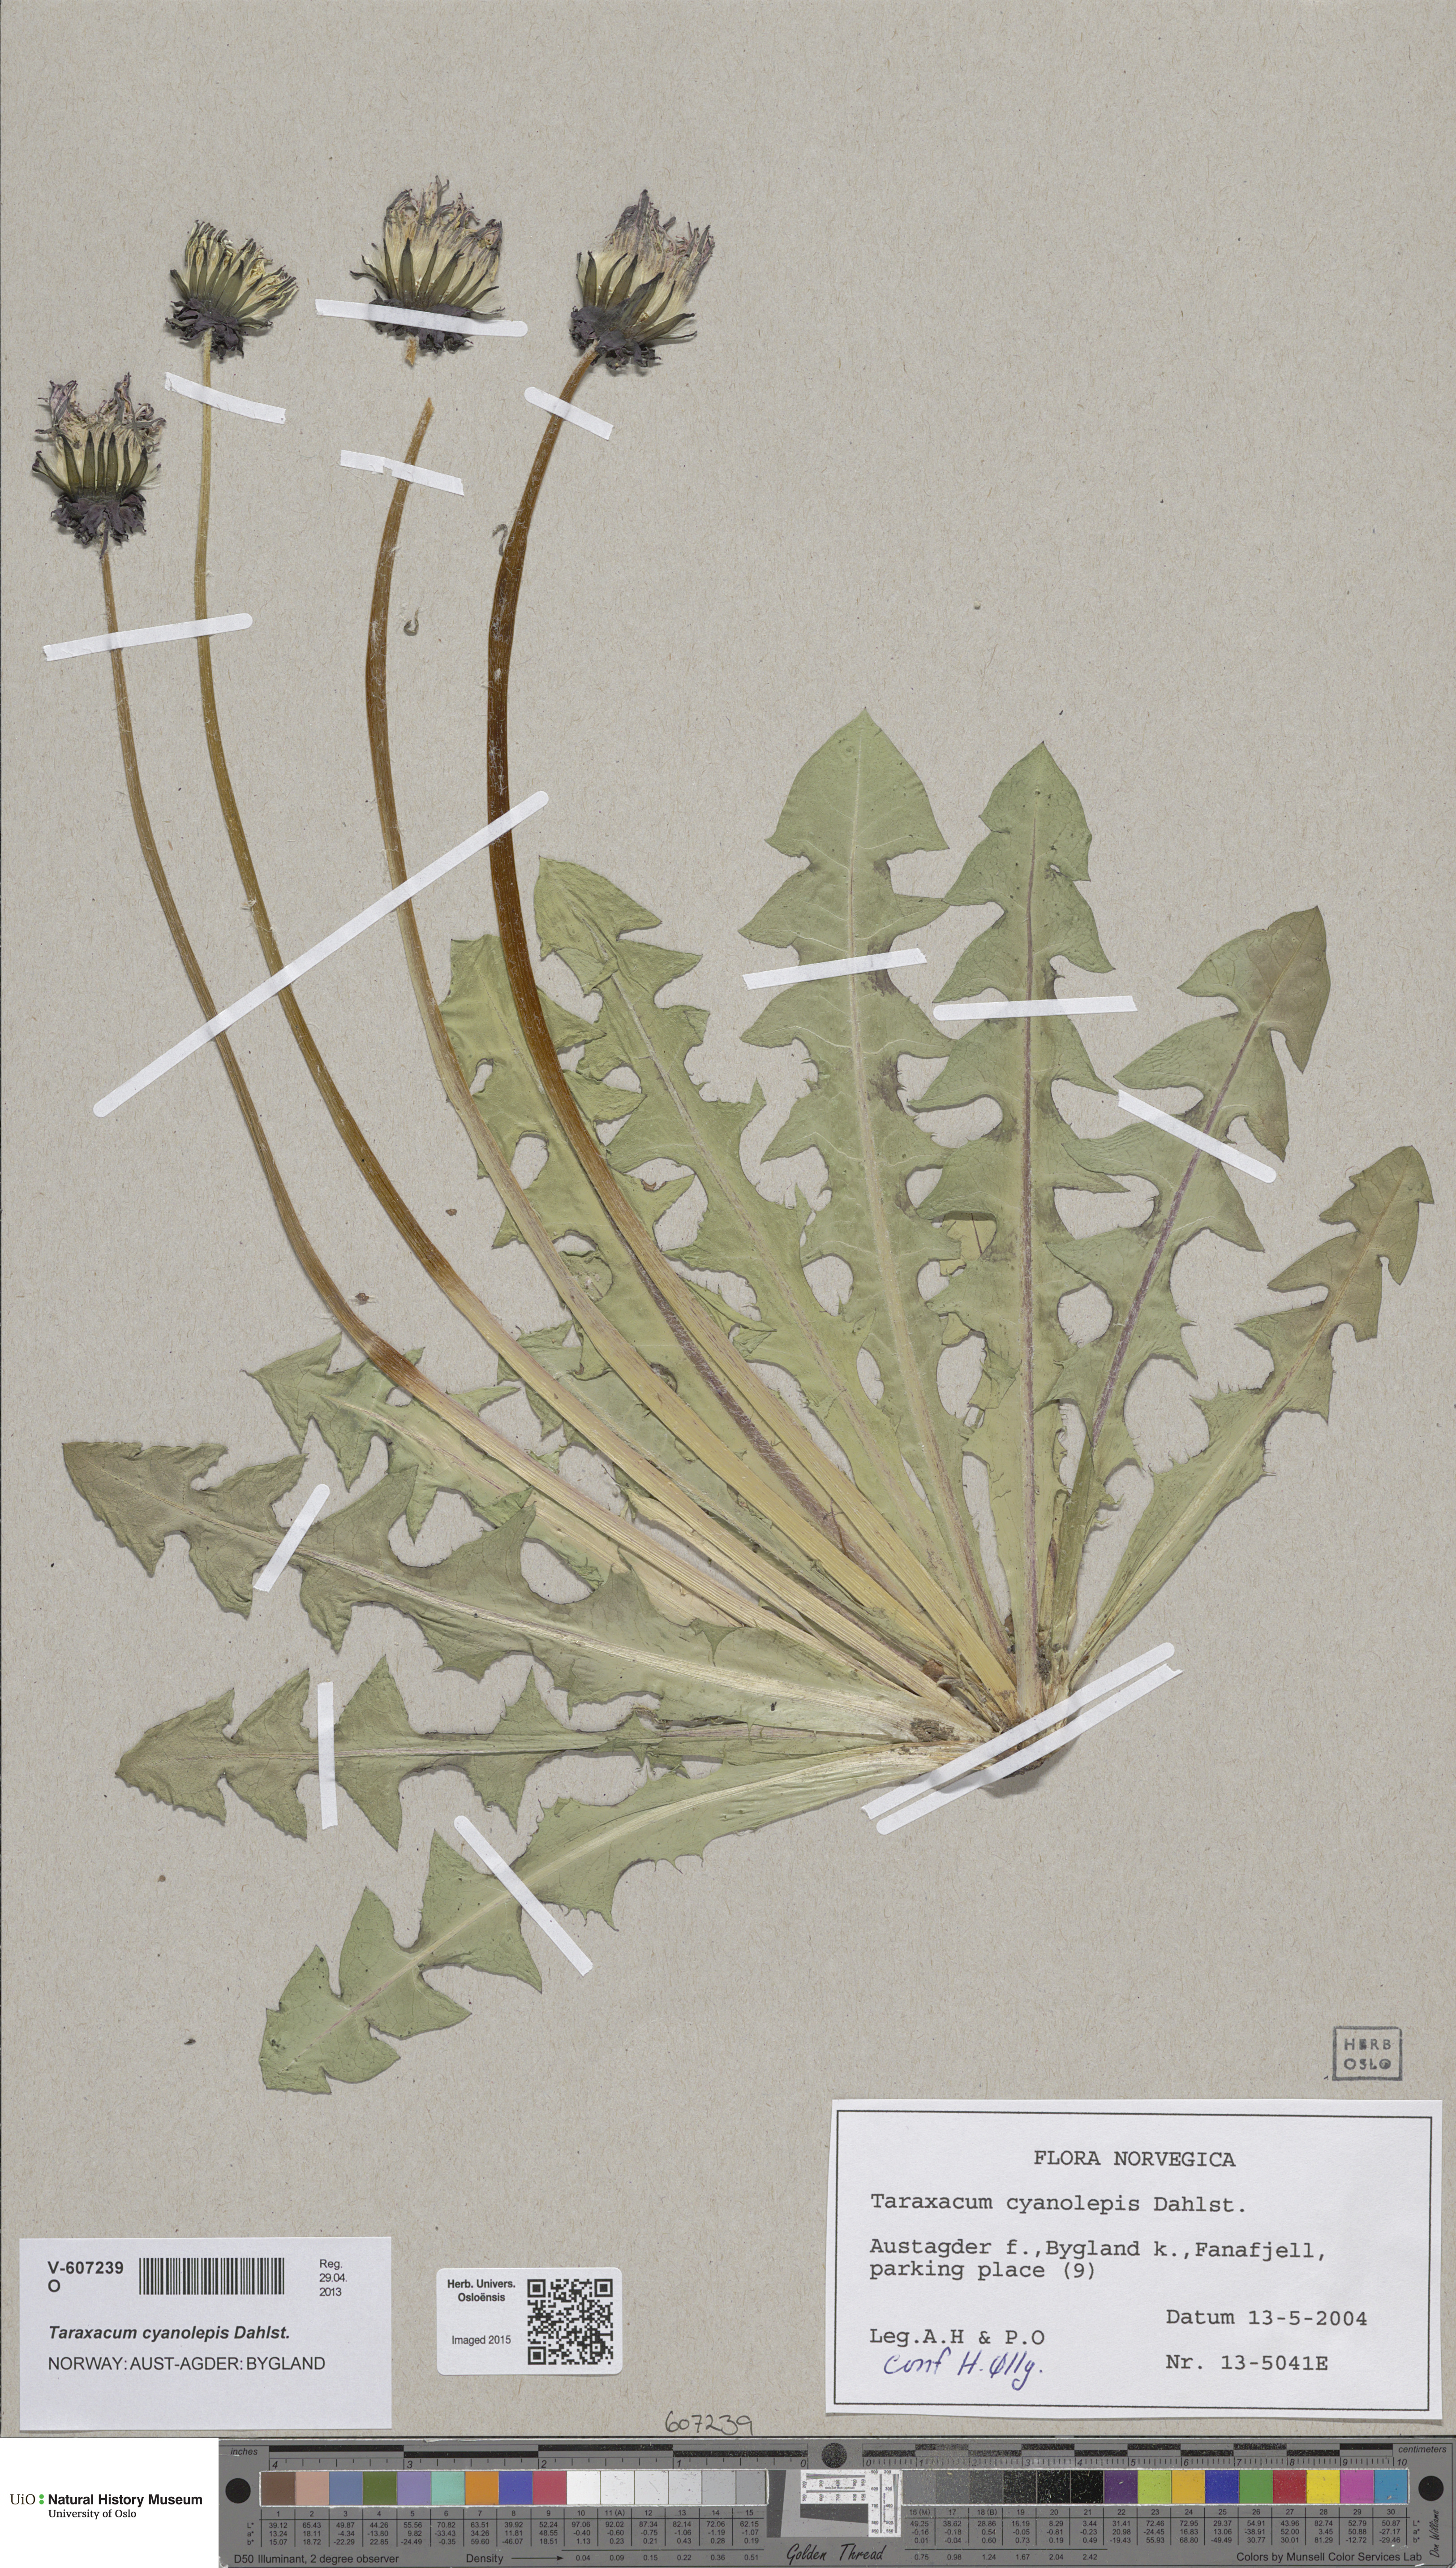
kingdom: Plantae
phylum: Tracheophyta
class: Magnoliopsida
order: Asterales
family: Asteraceae
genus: Taraxacum
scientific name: Taraxacum cyanolepis
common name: Bluish-bracted dandelion
